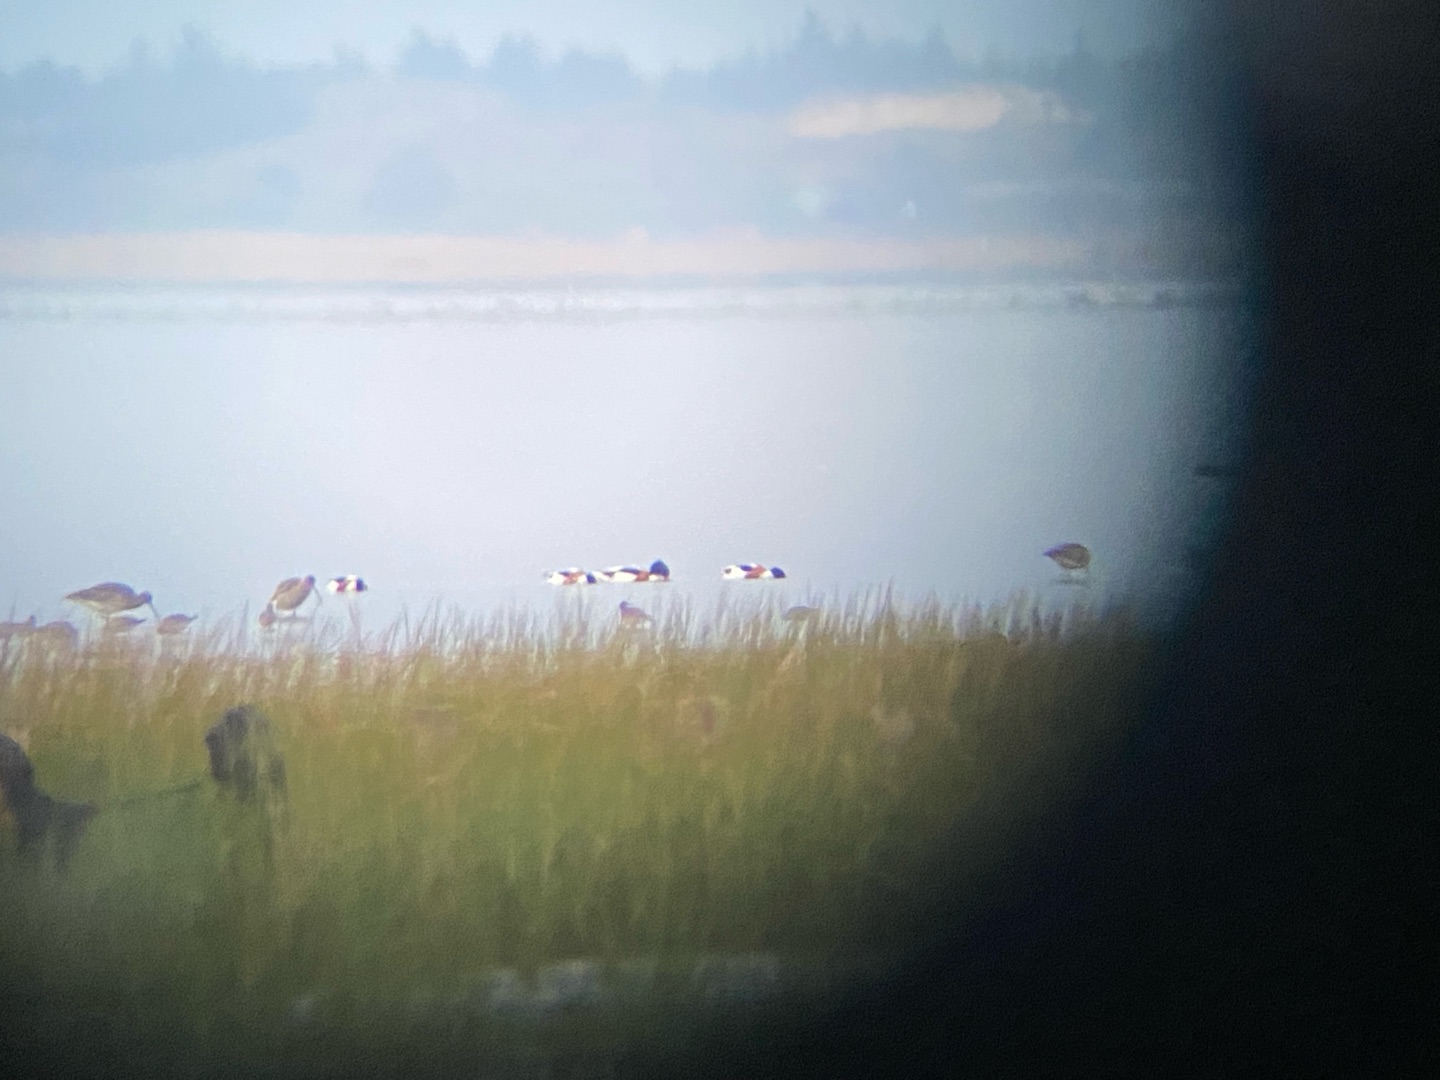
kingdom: Animalia
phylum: Chordata
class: Aves
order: Anseriformes
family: Anatidae
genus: Tadorna
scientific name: Tadorna tadorna
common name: Gravand
